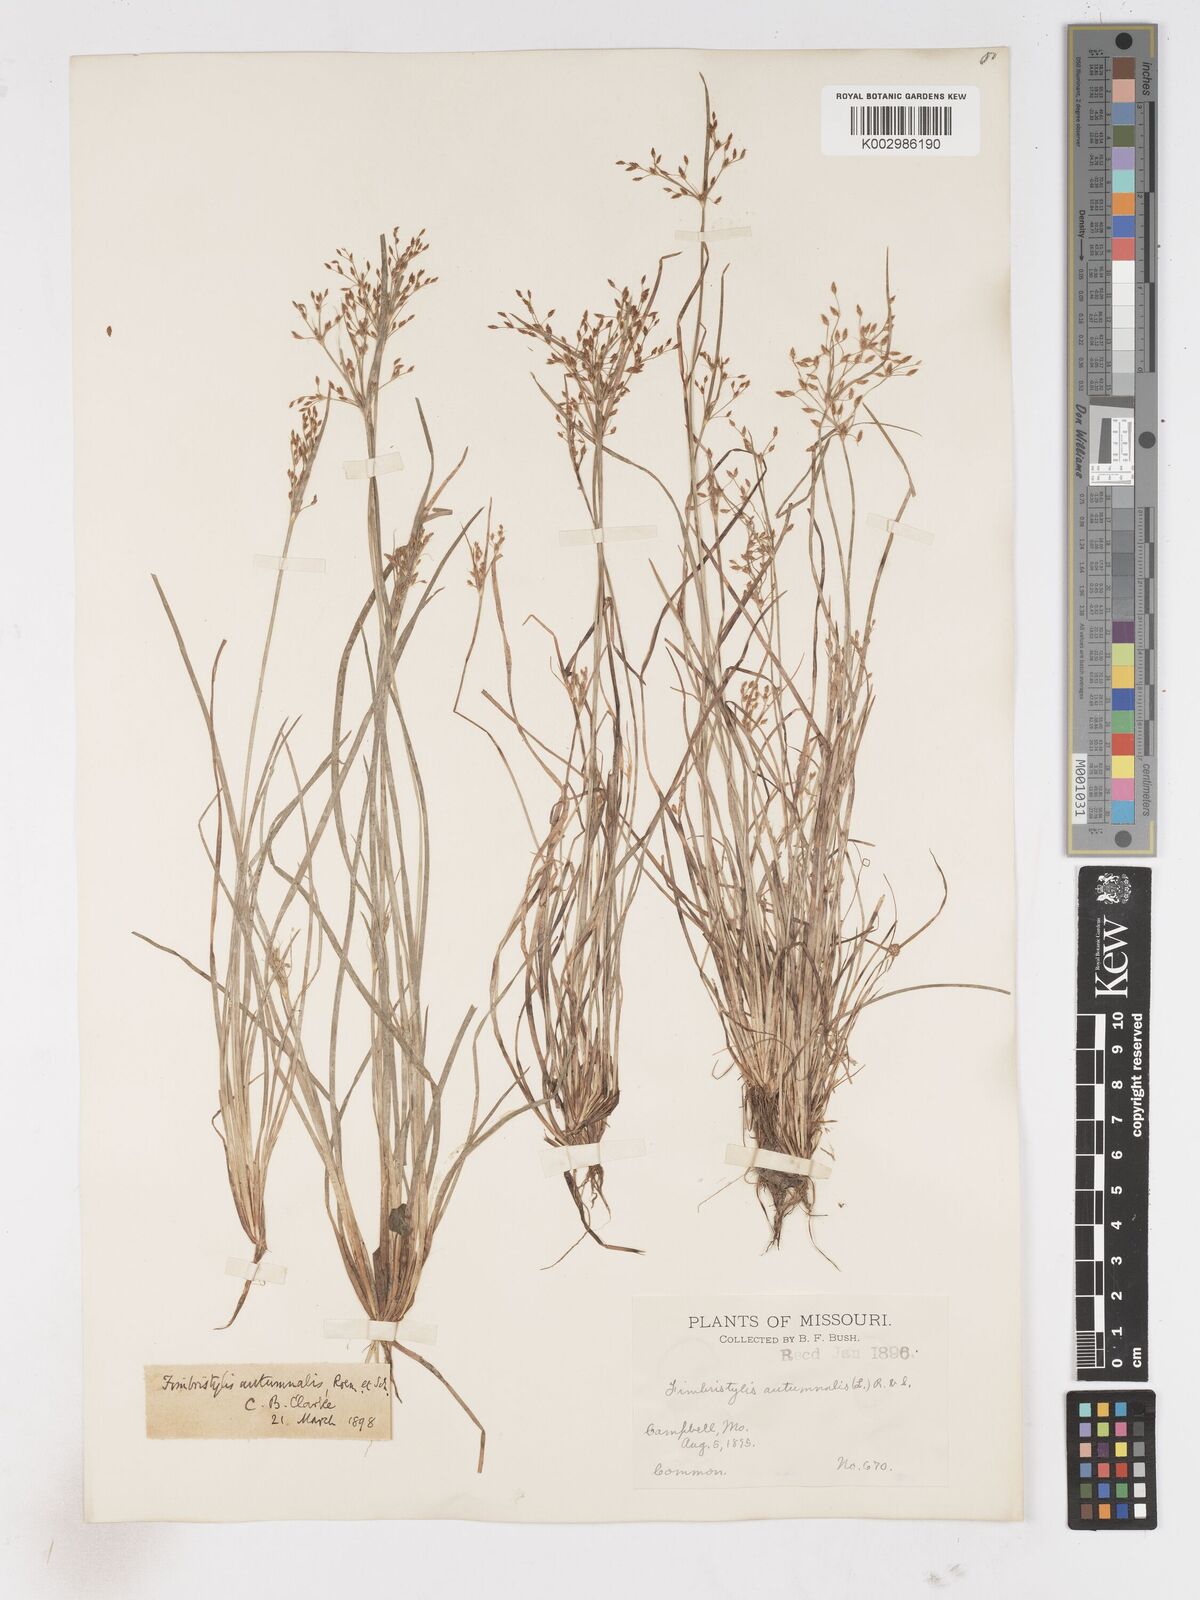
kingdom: Plantae
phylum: Tracheophyta
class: Liliopsida
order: Poales
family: Cyperaceae
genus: Fimbristylis
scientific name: Fimbristylis autumnalis
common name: Slender fimbristylis
